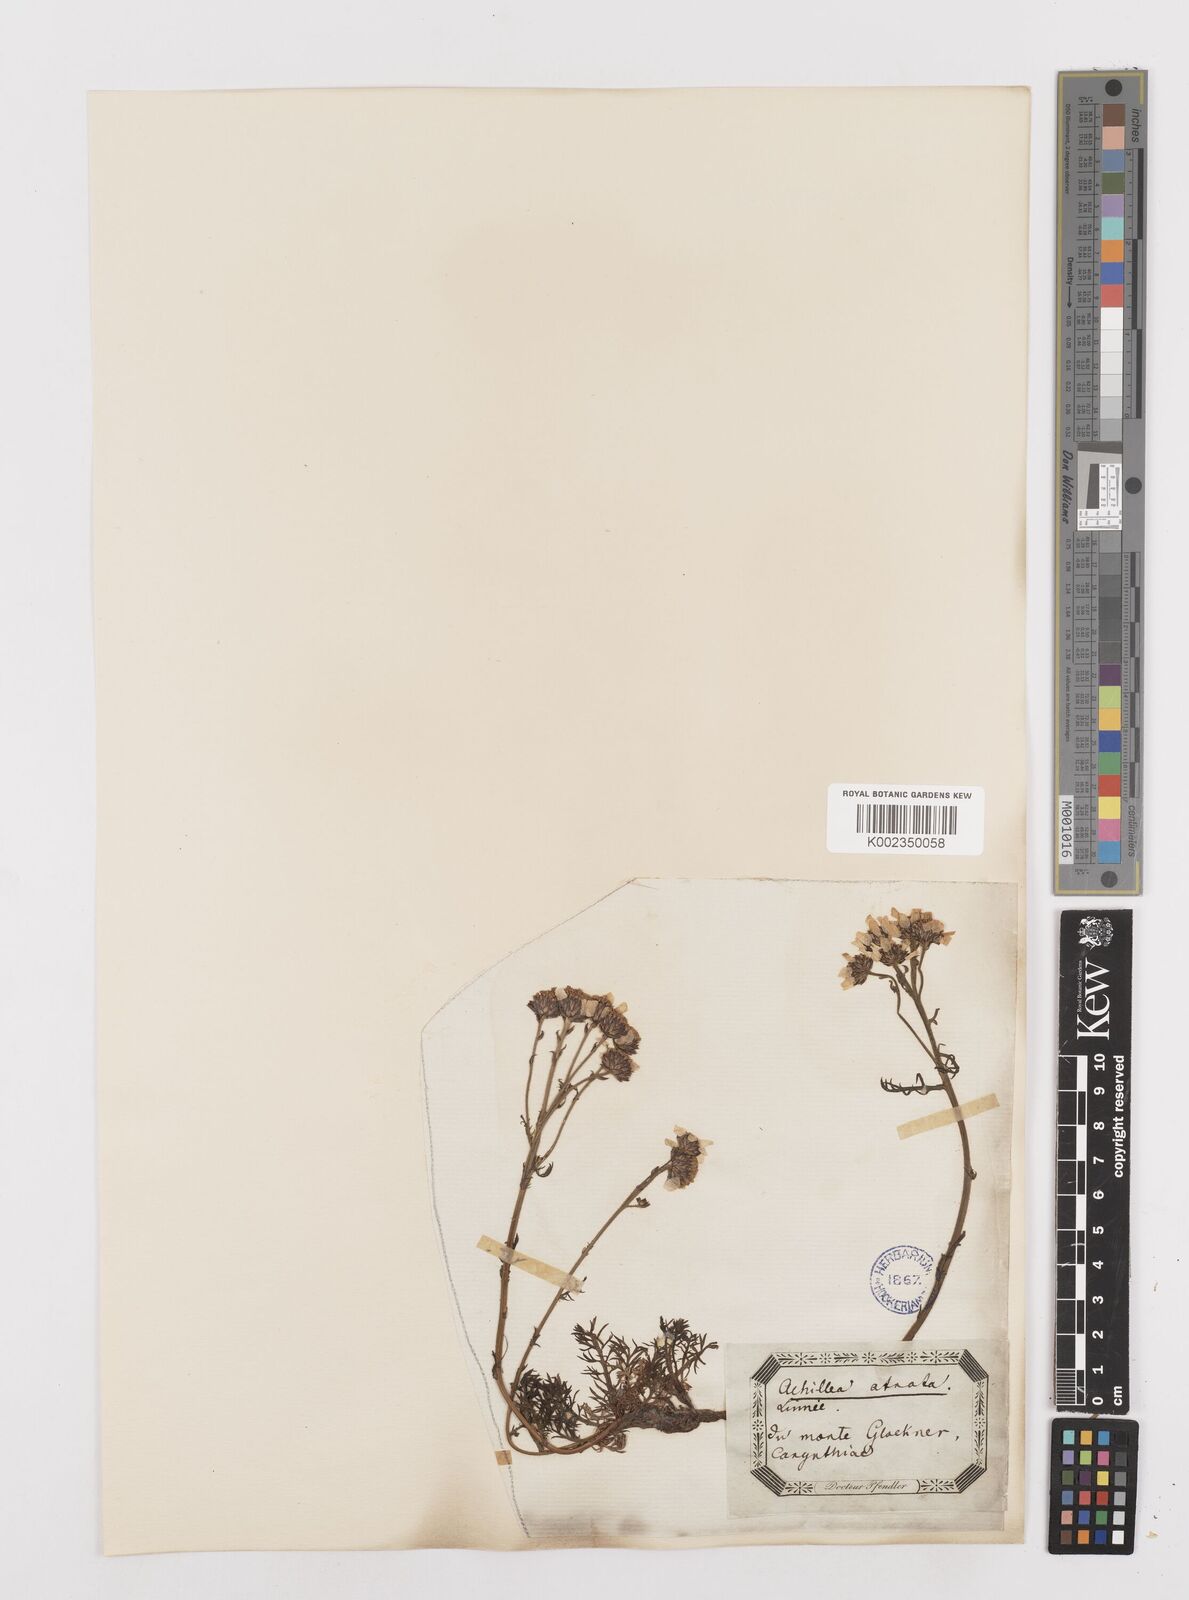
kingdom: Plantae
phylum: Tracheophyta
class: Magnoliopsida
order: Asterales
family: Asteraceae
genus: Achillea
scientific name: Achillea atrata
